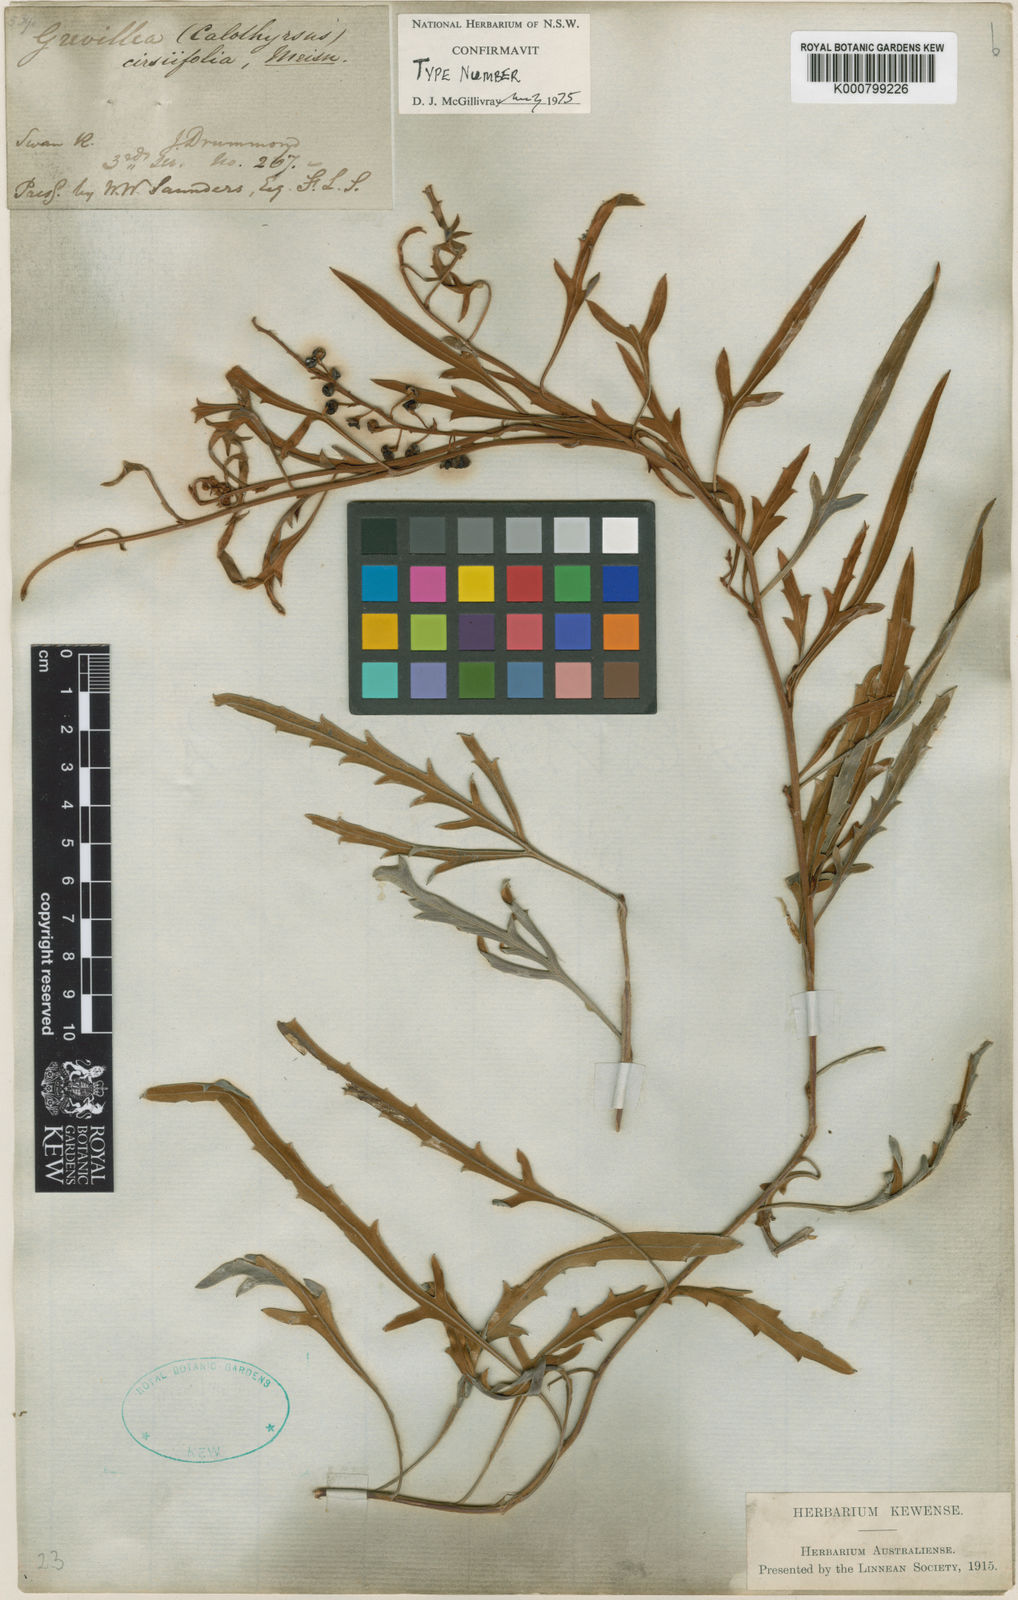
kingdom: Plantae
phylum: Tracheophyta
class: Magnoliopsida
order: Proteales
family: Proteaceae
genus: Grevillea
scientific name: Grevillea cirsiifolia
